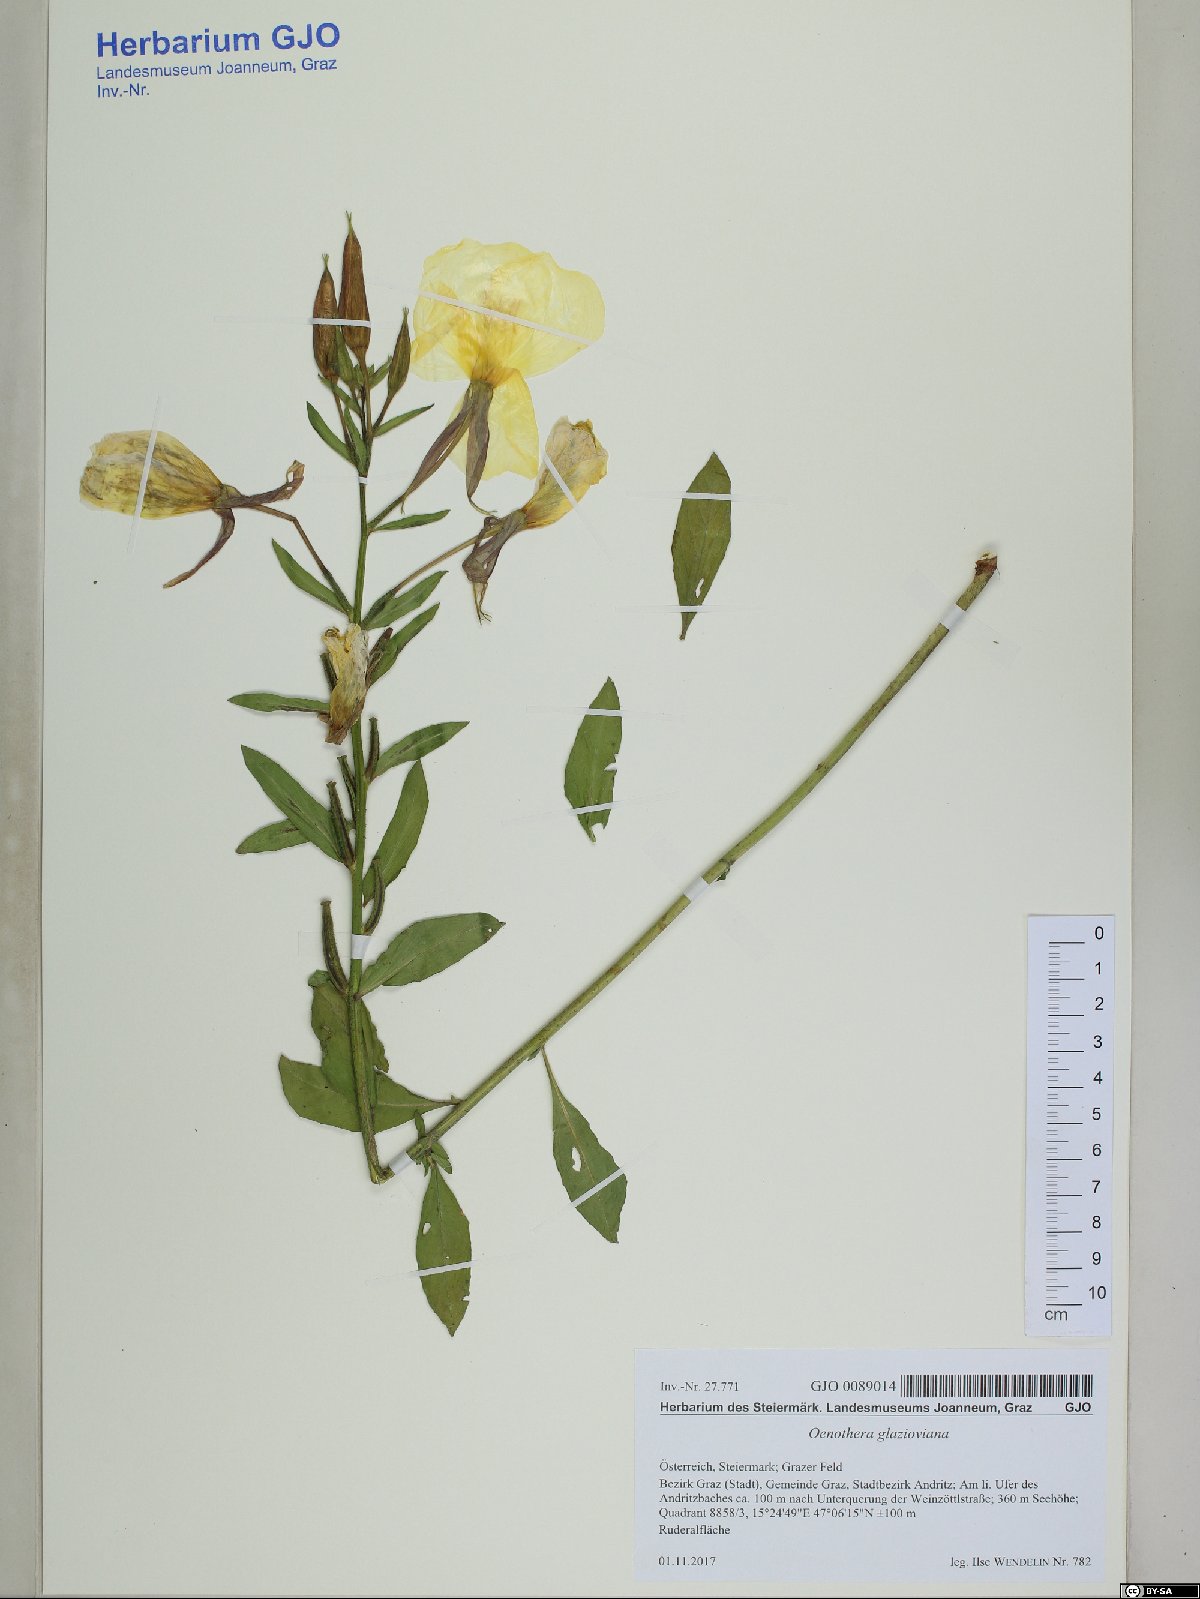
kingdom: Plantae
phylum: Tracheophyta
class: Magnoliopsida
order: Myrtales
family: Onagraceae
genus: Oenothera
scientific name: Oenothera glazioviana
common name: Large-flowered evening-primrose
